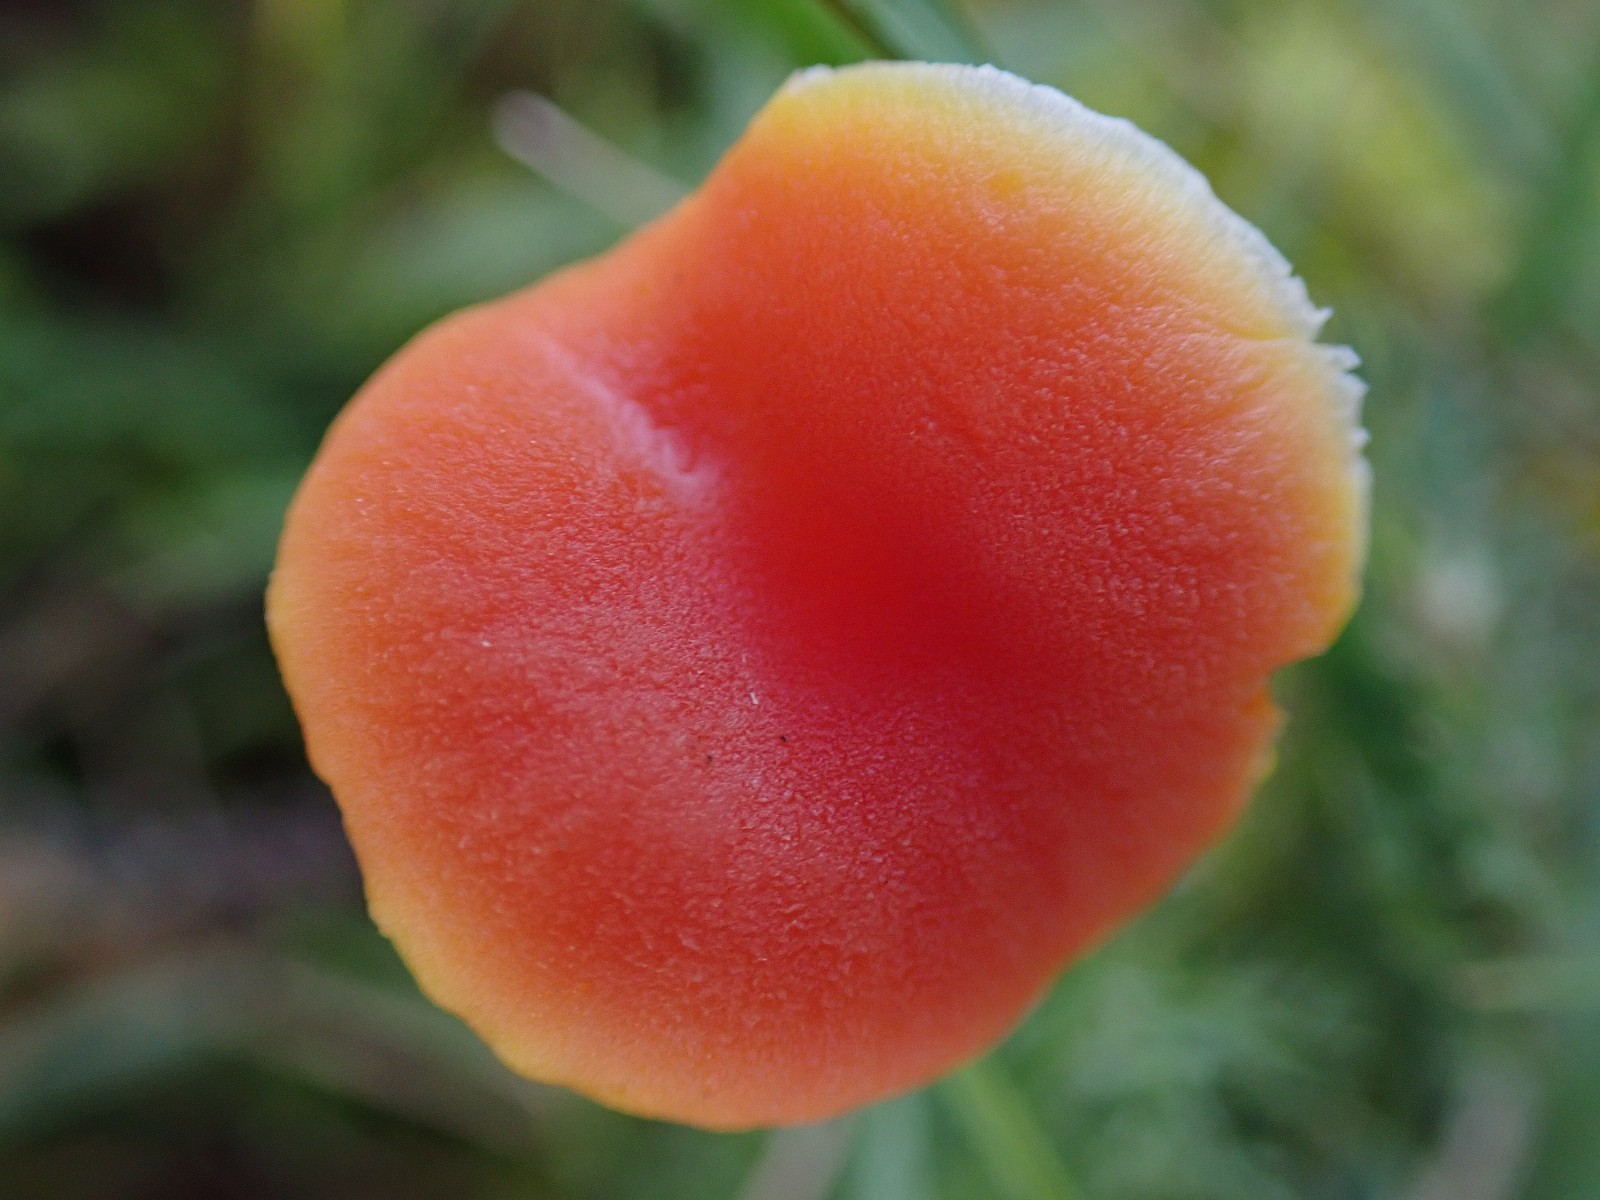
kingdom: Fungi
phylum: Basidiomycota
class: Agaricomycetes
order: Agaricales
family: Hygrophoraceae
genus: Hygrocybe
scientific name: Hygrocybe miniata
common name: mønje-vokshat
